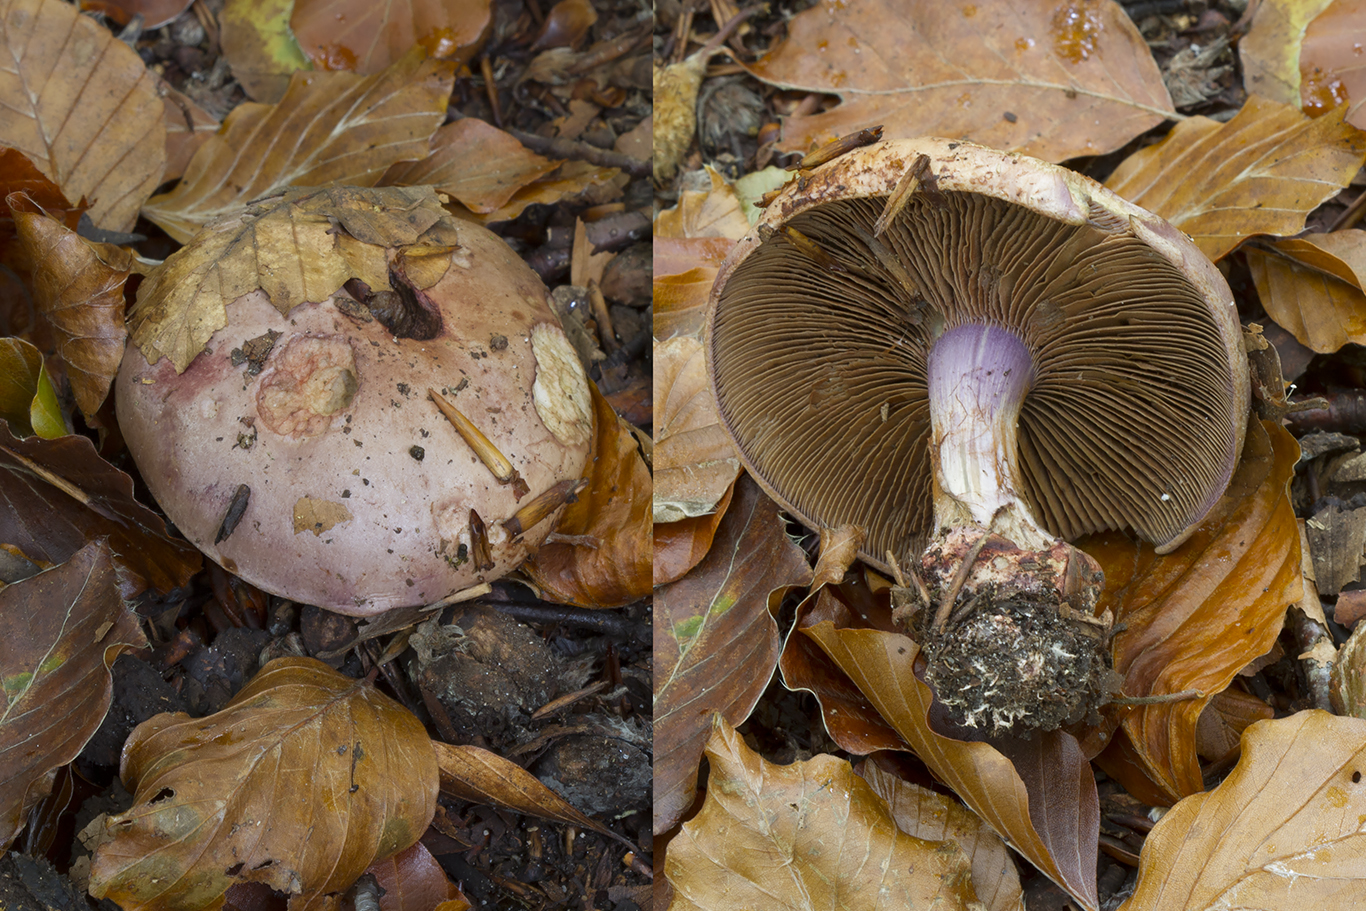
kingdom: Fungi
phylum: Basidiomycota
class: Agaricomycetes
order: Agaricales
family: Cortinariaceae
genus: Calonarius
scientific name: Calonarius rufo-olivaceus
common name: firefarvet slørhat
